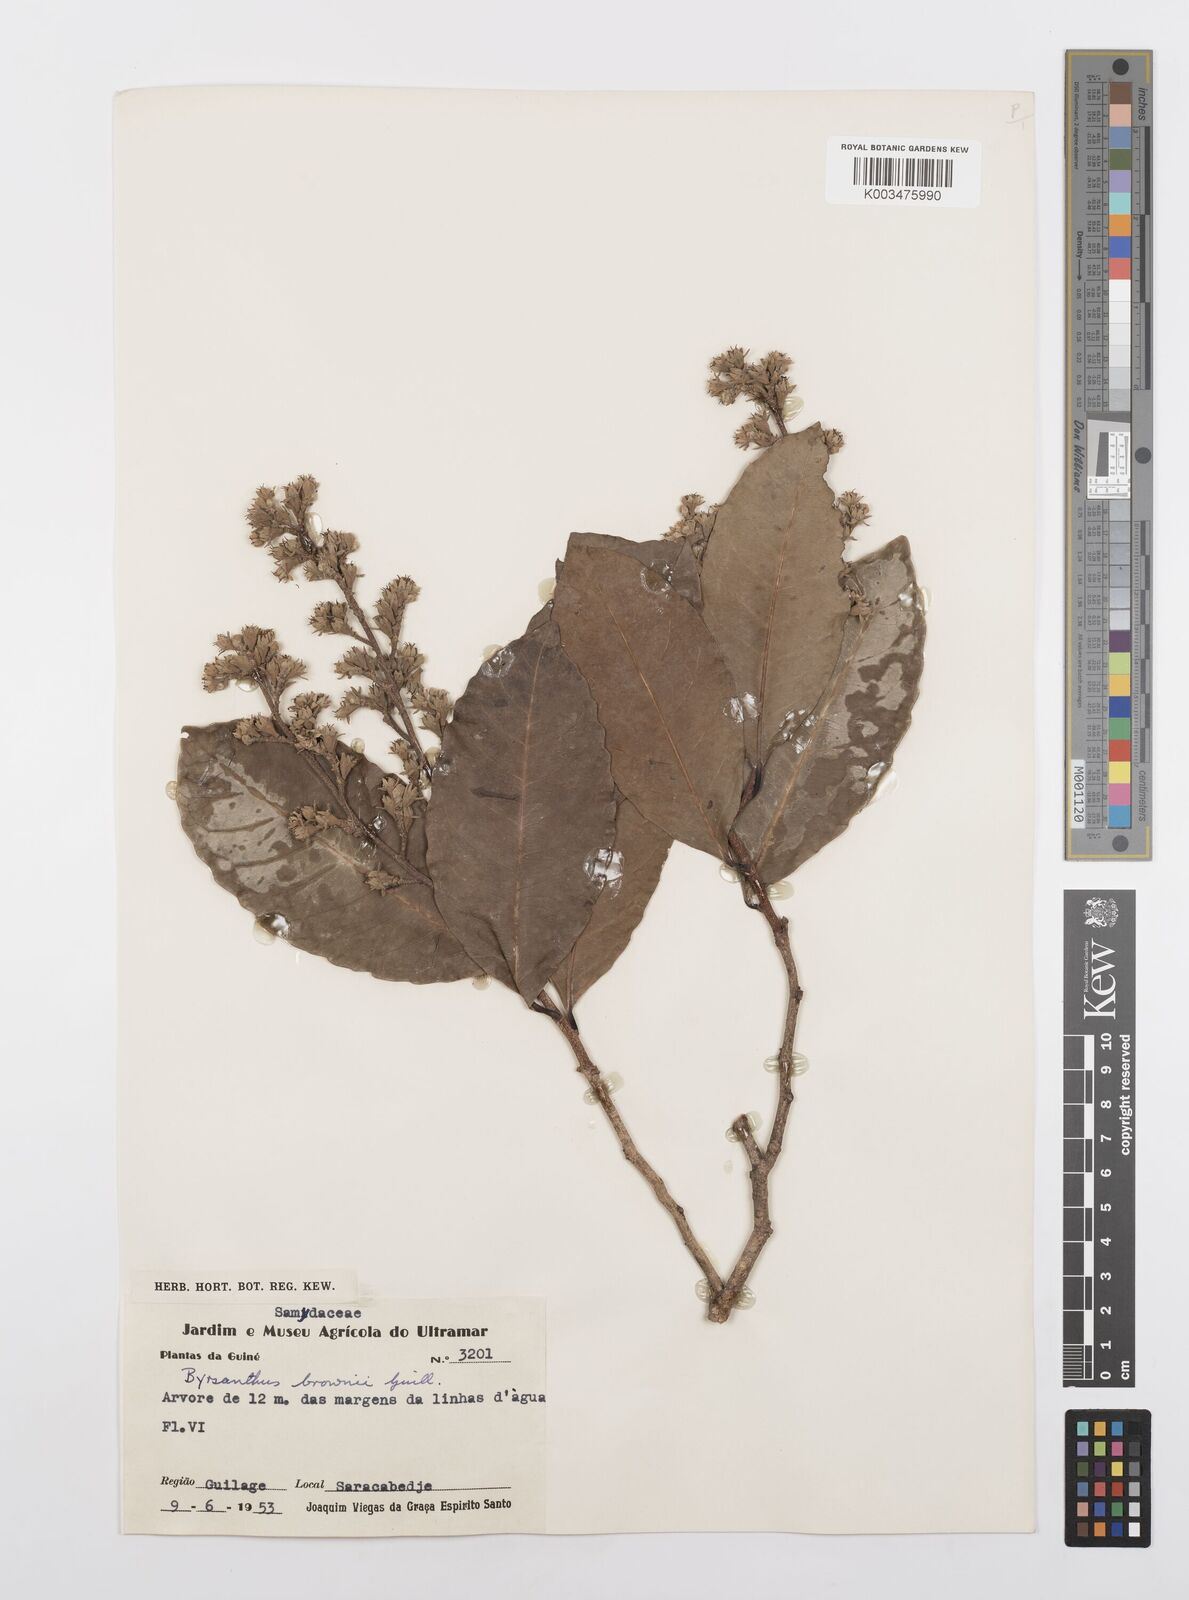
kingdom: Plantae
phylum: Tracheophyta
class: Magnoliopsida
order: Malpighiales
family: Salicaceae
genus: Byrsanthus
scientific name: Byrsanthus brownii
